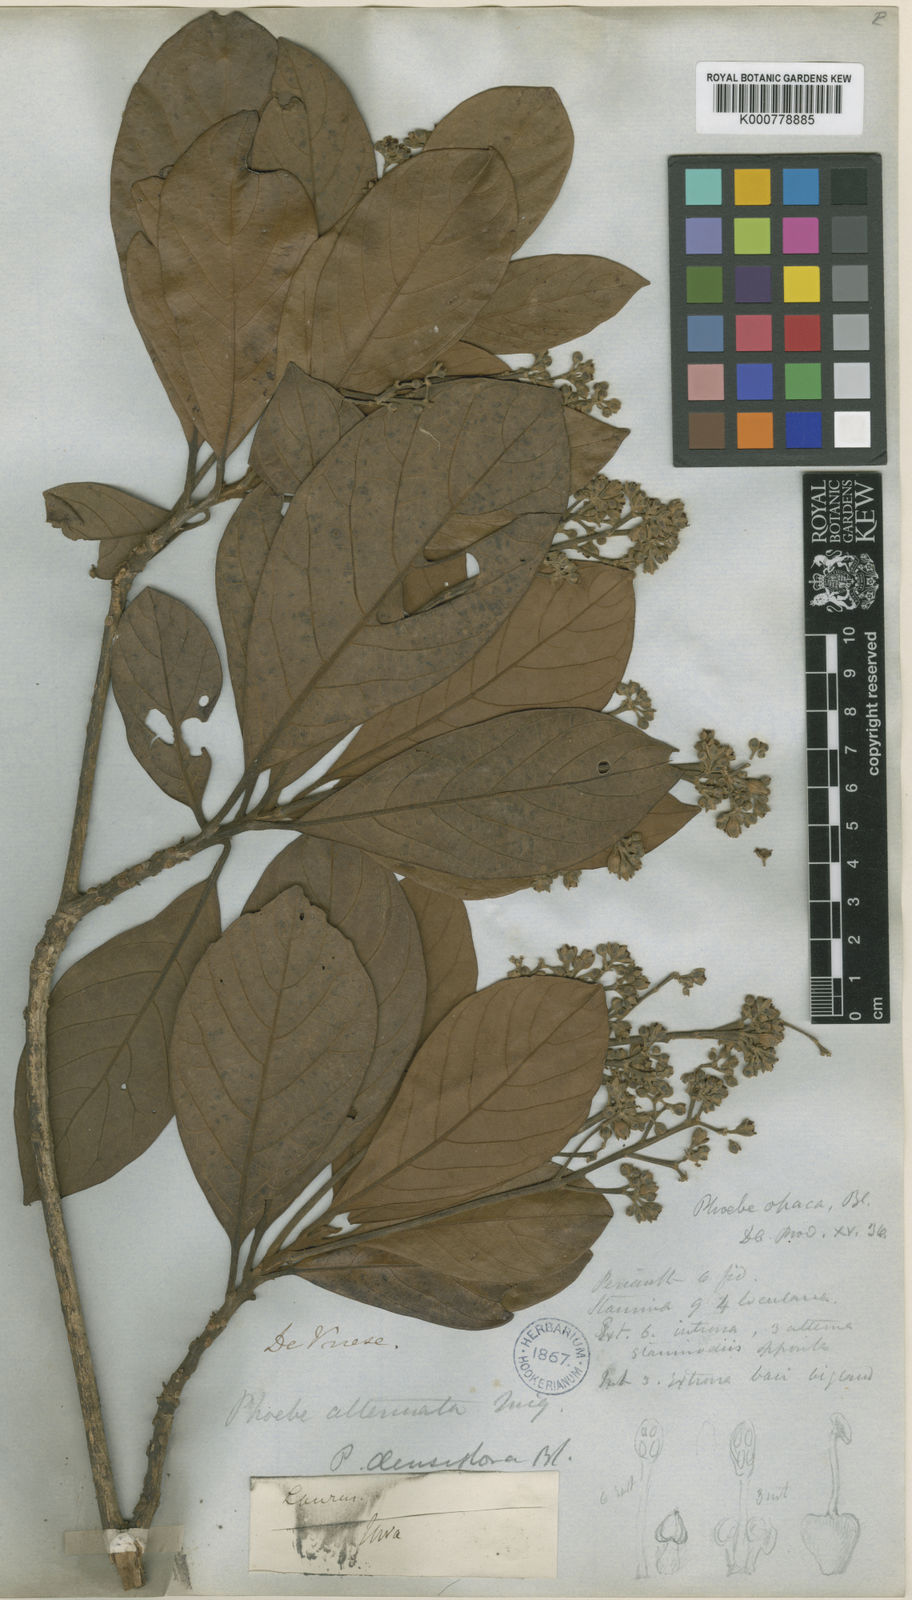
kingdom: Plantae
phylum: Tracheophyta
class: Magnoliopsida
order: Laurales
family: Lauraceae
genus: Phoebe
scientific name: Phoebe grandis
